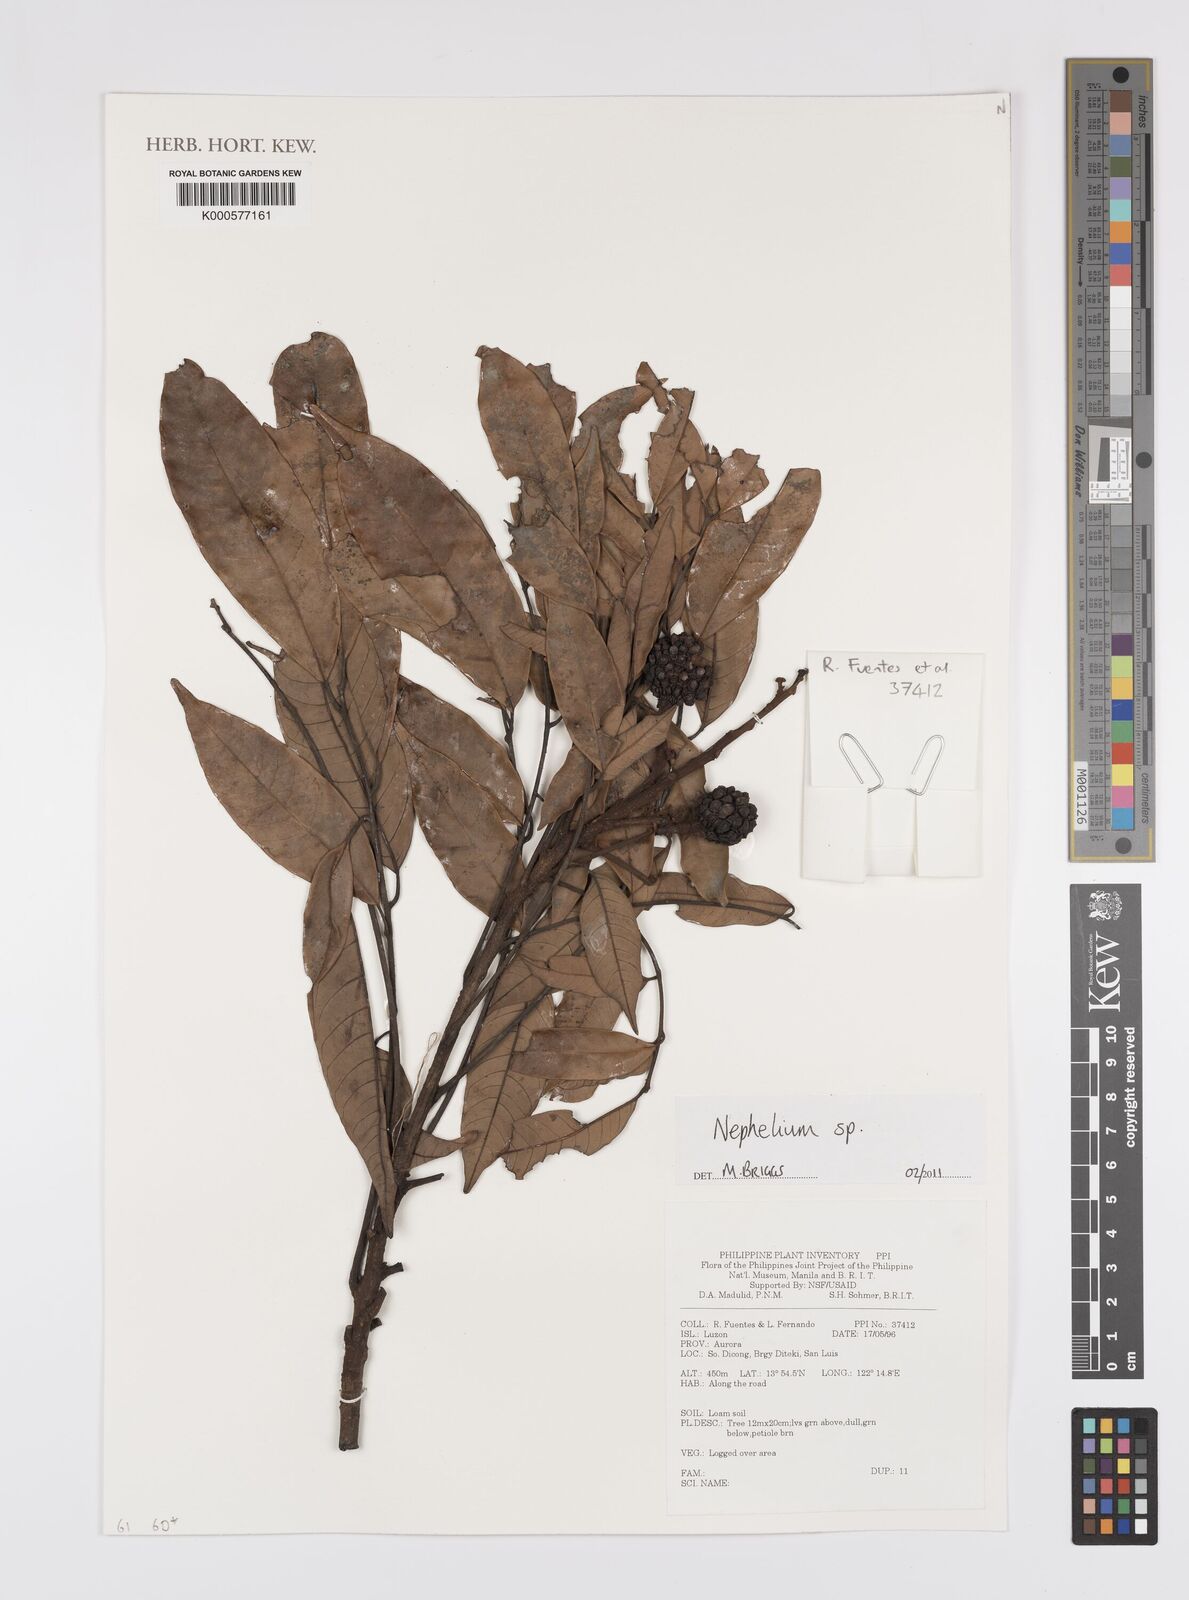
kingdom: Plantae
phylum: Tracheophyta
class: Magnoliopsida
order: Sapindales
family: Sapindaceae
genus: Nephelium
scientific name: Nephelium
